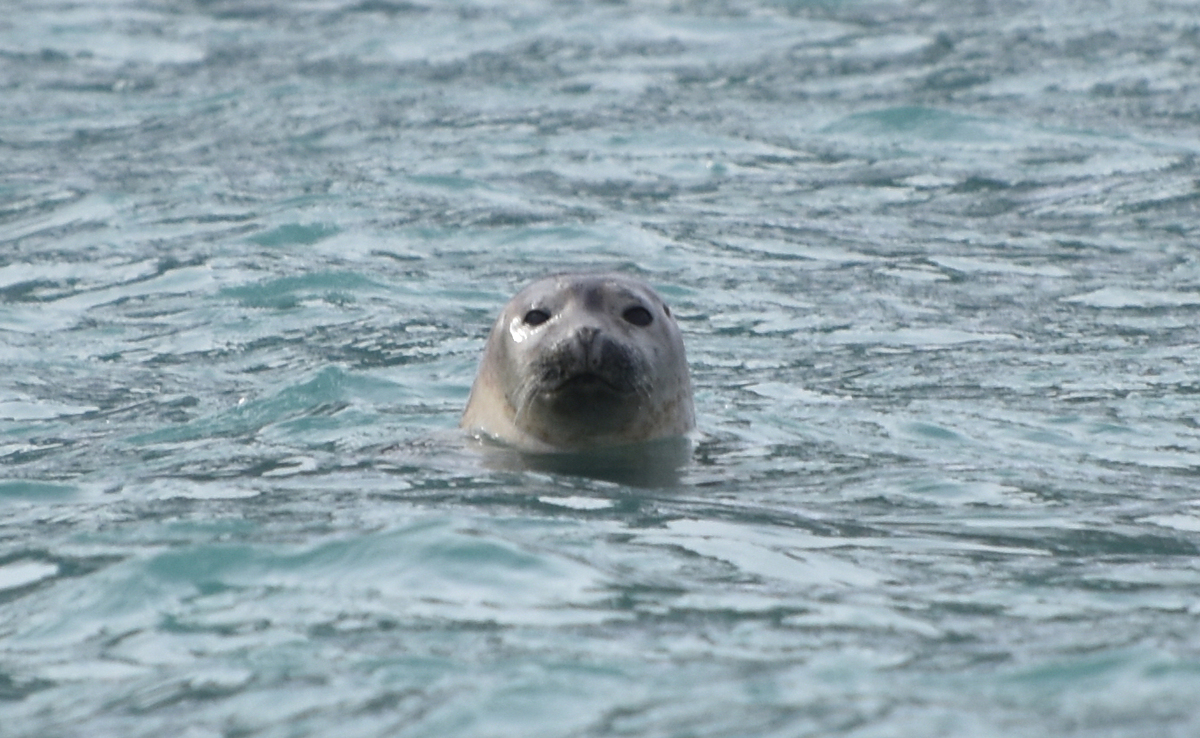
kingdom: Animalia
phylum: Chordata
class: Mammalia
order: Carnivora
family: Phocidae
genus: Phoca
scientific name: Phoca vitulina
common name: Harbor seal
